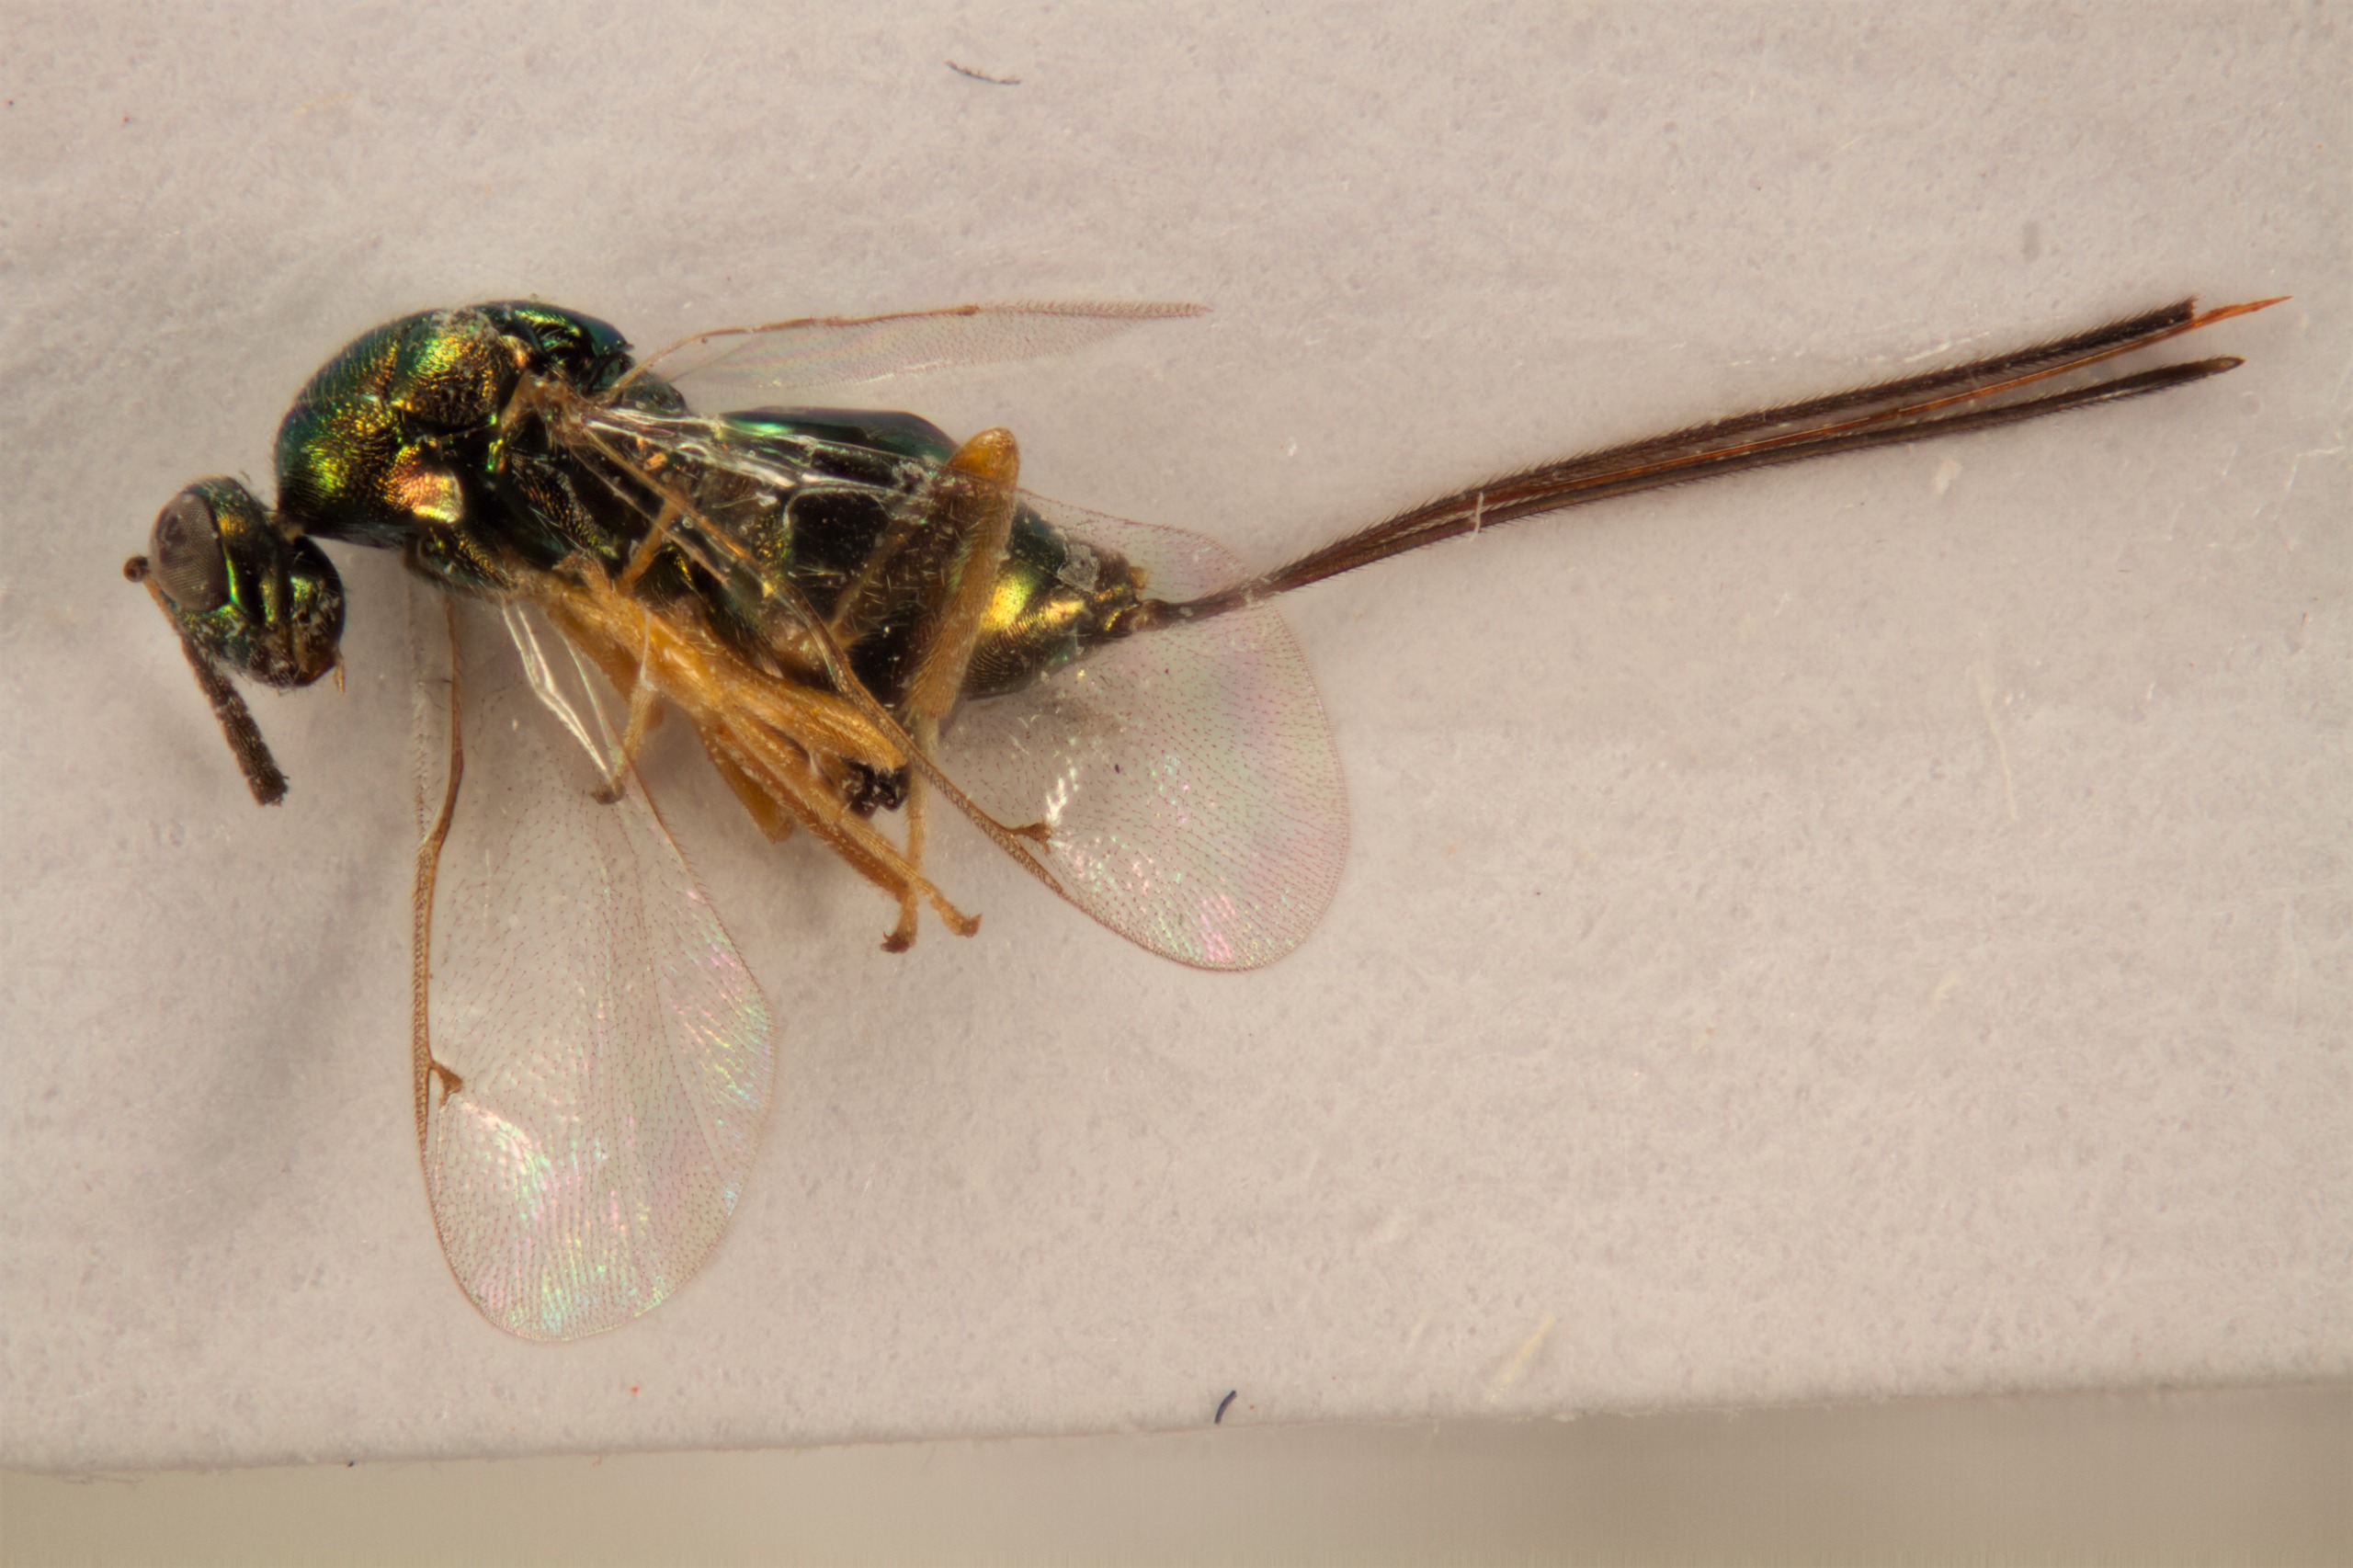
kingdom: Animalia
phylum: Arthropoda
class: Insecta
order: Hymenoptera
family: Torymidae
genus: Torymus
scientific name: Torymus affinis
